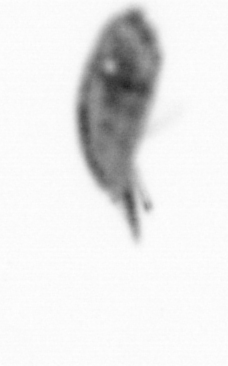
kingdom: Animalia
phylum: Arthropoda
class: Maxillopoda
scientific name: Maxillopoda
